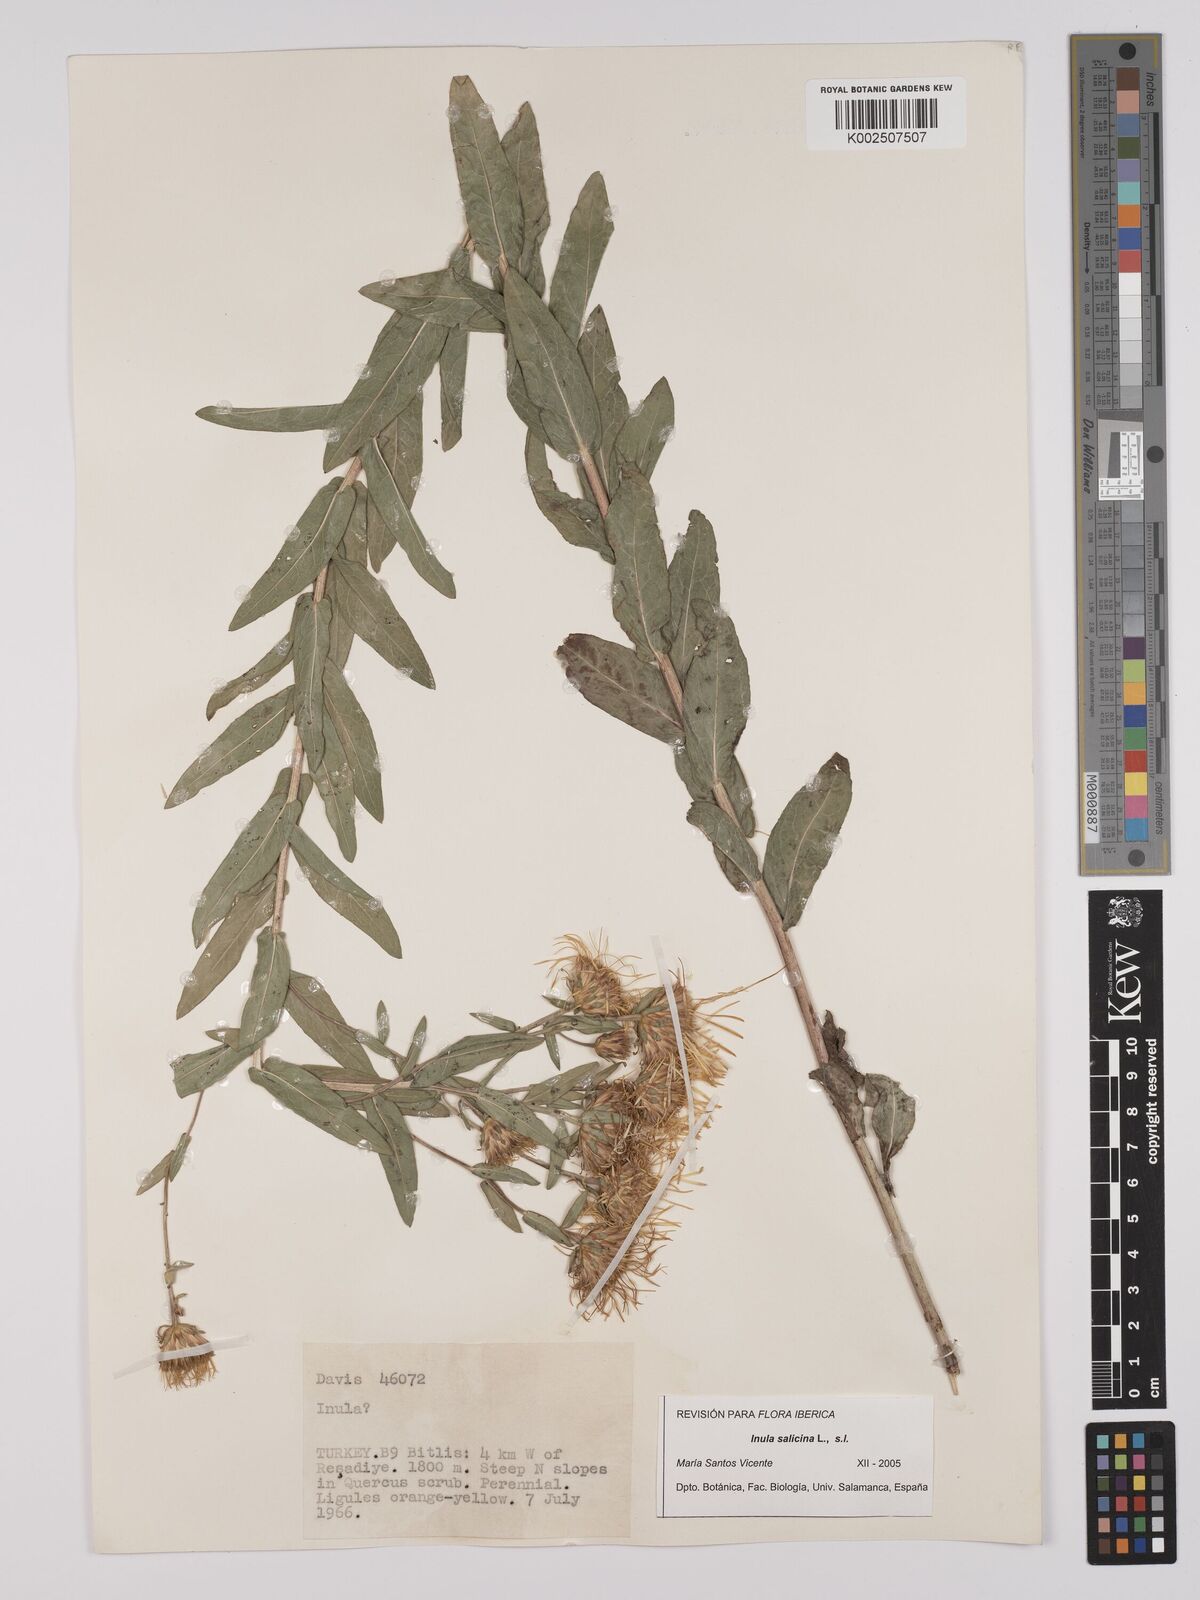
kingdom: Plantae
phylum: Tracheophyta
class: Magnoliopsida
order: Asterales
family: Asteraceae
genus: Pentanema
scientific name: Pentanema salicinum
